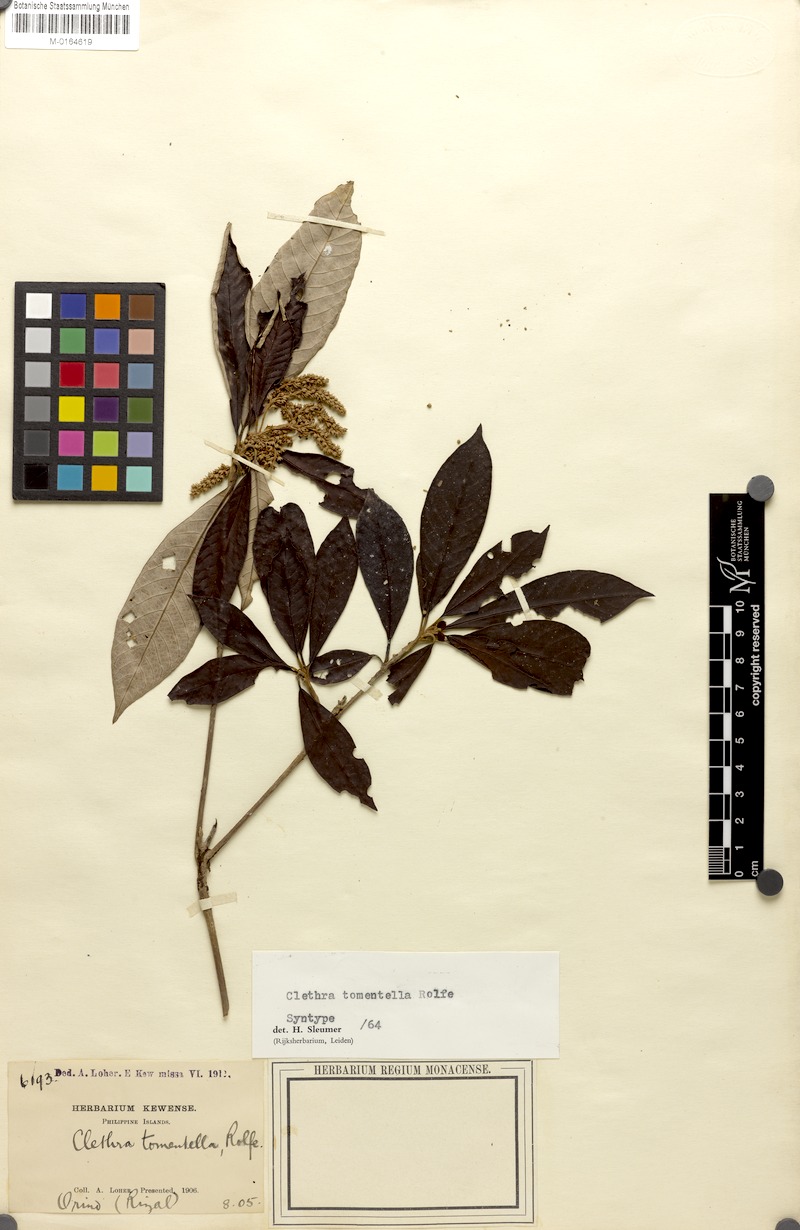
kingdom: Plantae
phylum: Tracheophyta
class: Magnoliopsida
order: Ericales
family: Clethraceae
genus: Clethra
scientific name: Clethra tomentella
